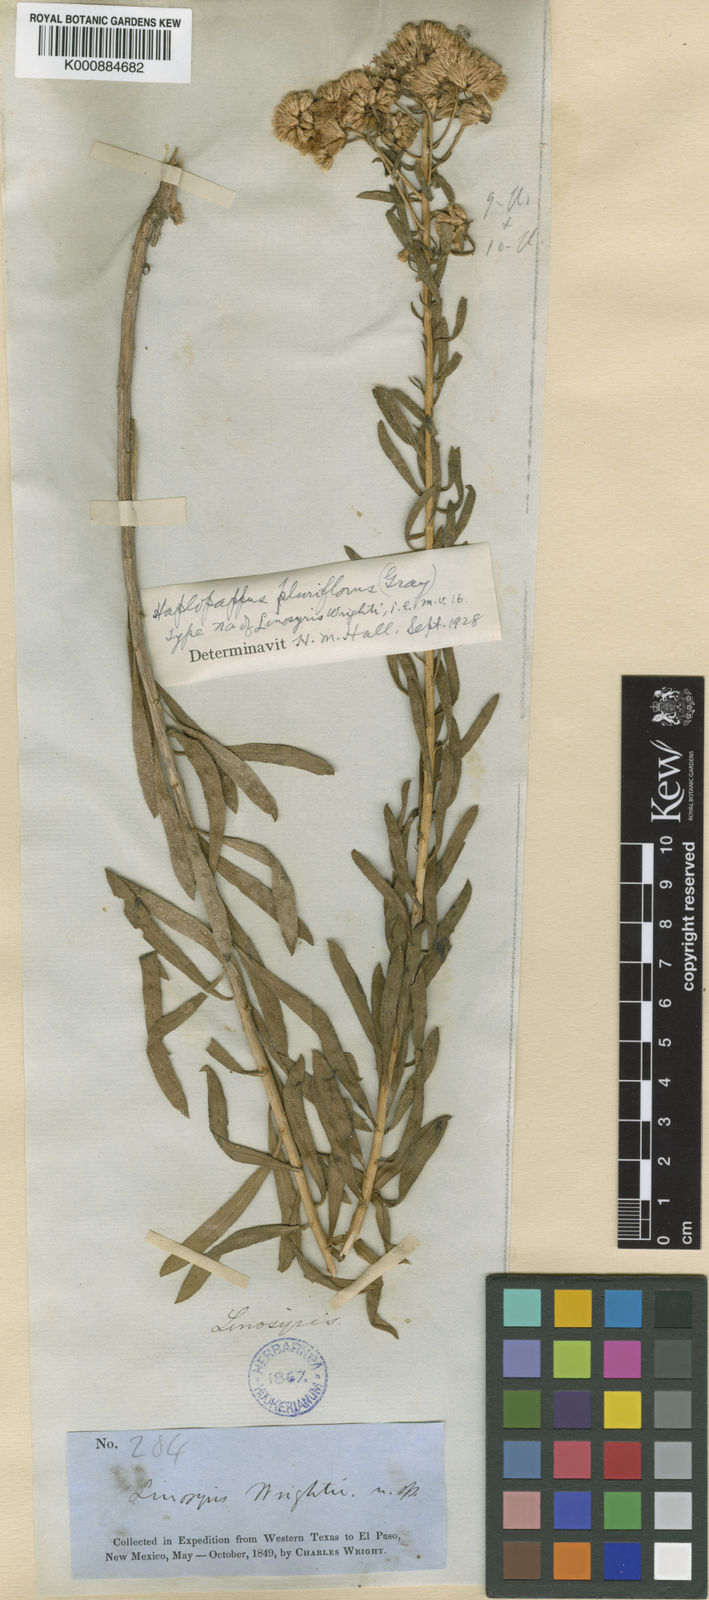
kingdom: Plantae
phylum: Tracheophyta
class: Magnoliopsida
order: Asterales
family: Asteraceae
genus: Isocoma
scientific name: Isocoma pluriflora
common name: Southern jimmyweed
